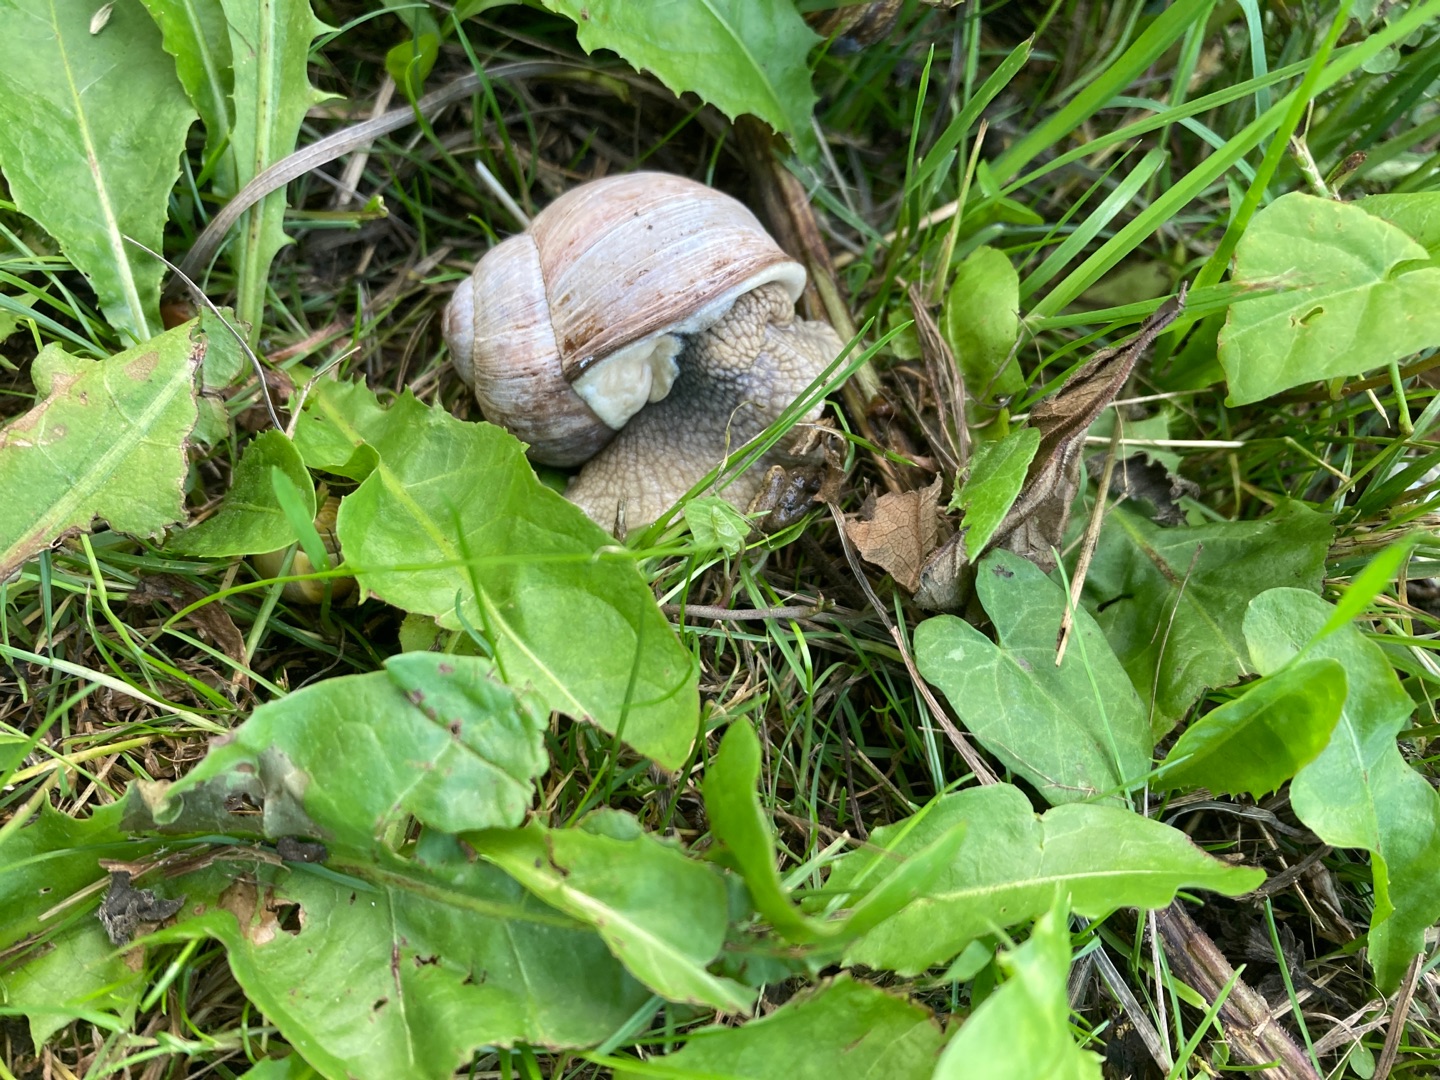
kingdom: Animalia
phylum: Mollusca
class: Gastropoda
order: Stylommatophora
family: Helicidae
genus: Helix
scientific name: Helix pomatia
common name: Vinbjergsnegl
